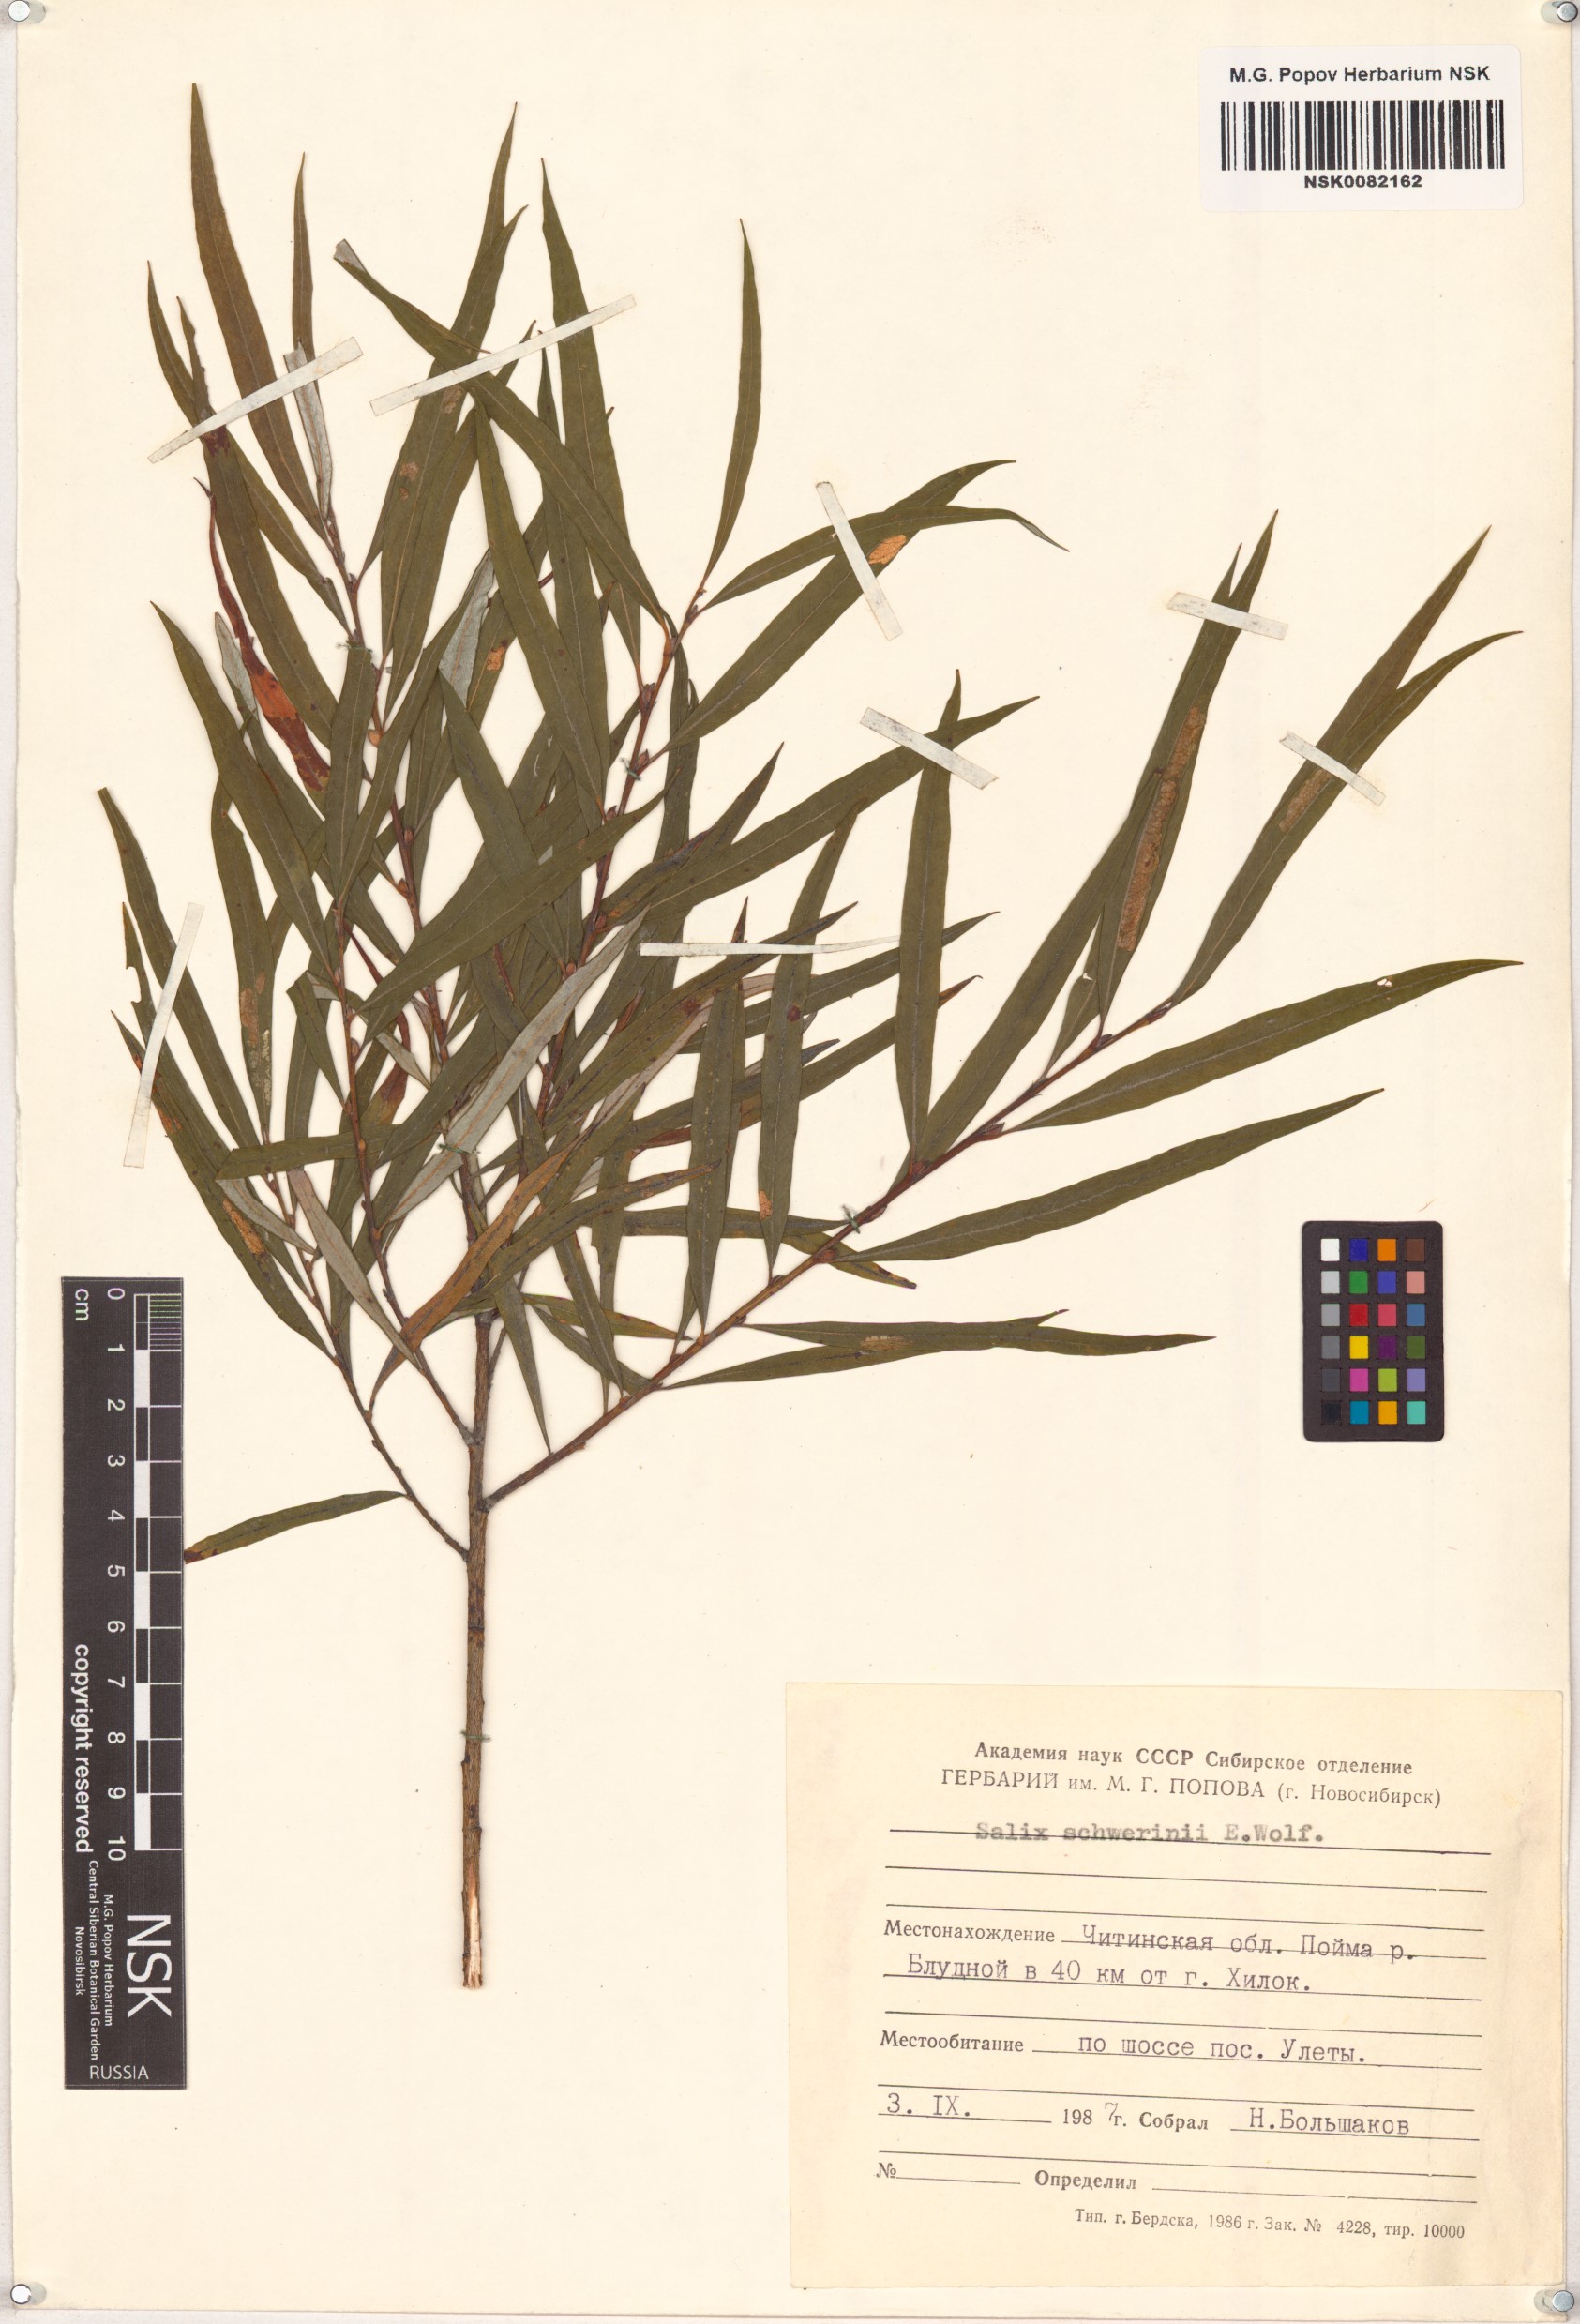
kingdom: Plantae
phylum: Tracheophyta
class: Magnoliopsida
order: Malpighiales
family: Salicaceae
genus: Salix
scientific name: Salix schwerinii
